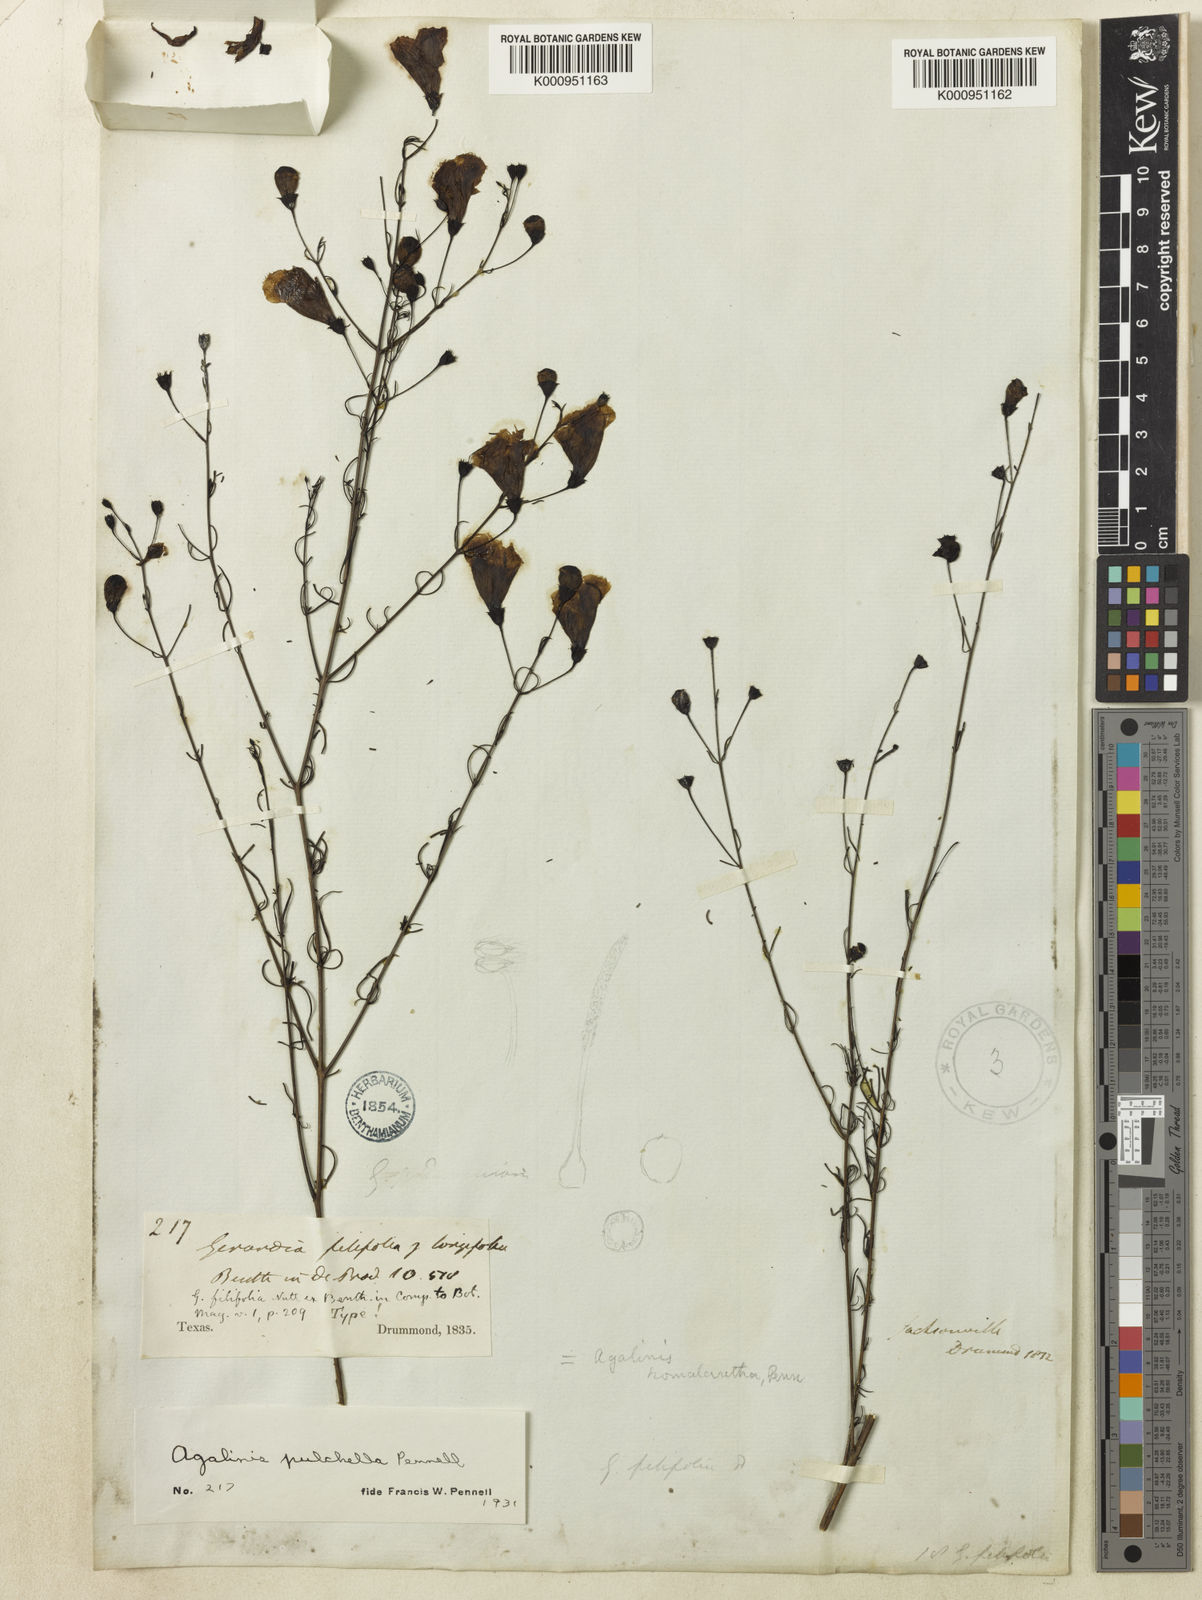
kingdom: Plantae
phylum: Tracheophyta
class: Magnoliopsida
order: Lamiales
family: Orobanchaceae
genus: Agalinis
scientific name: Agalinis pulchella
